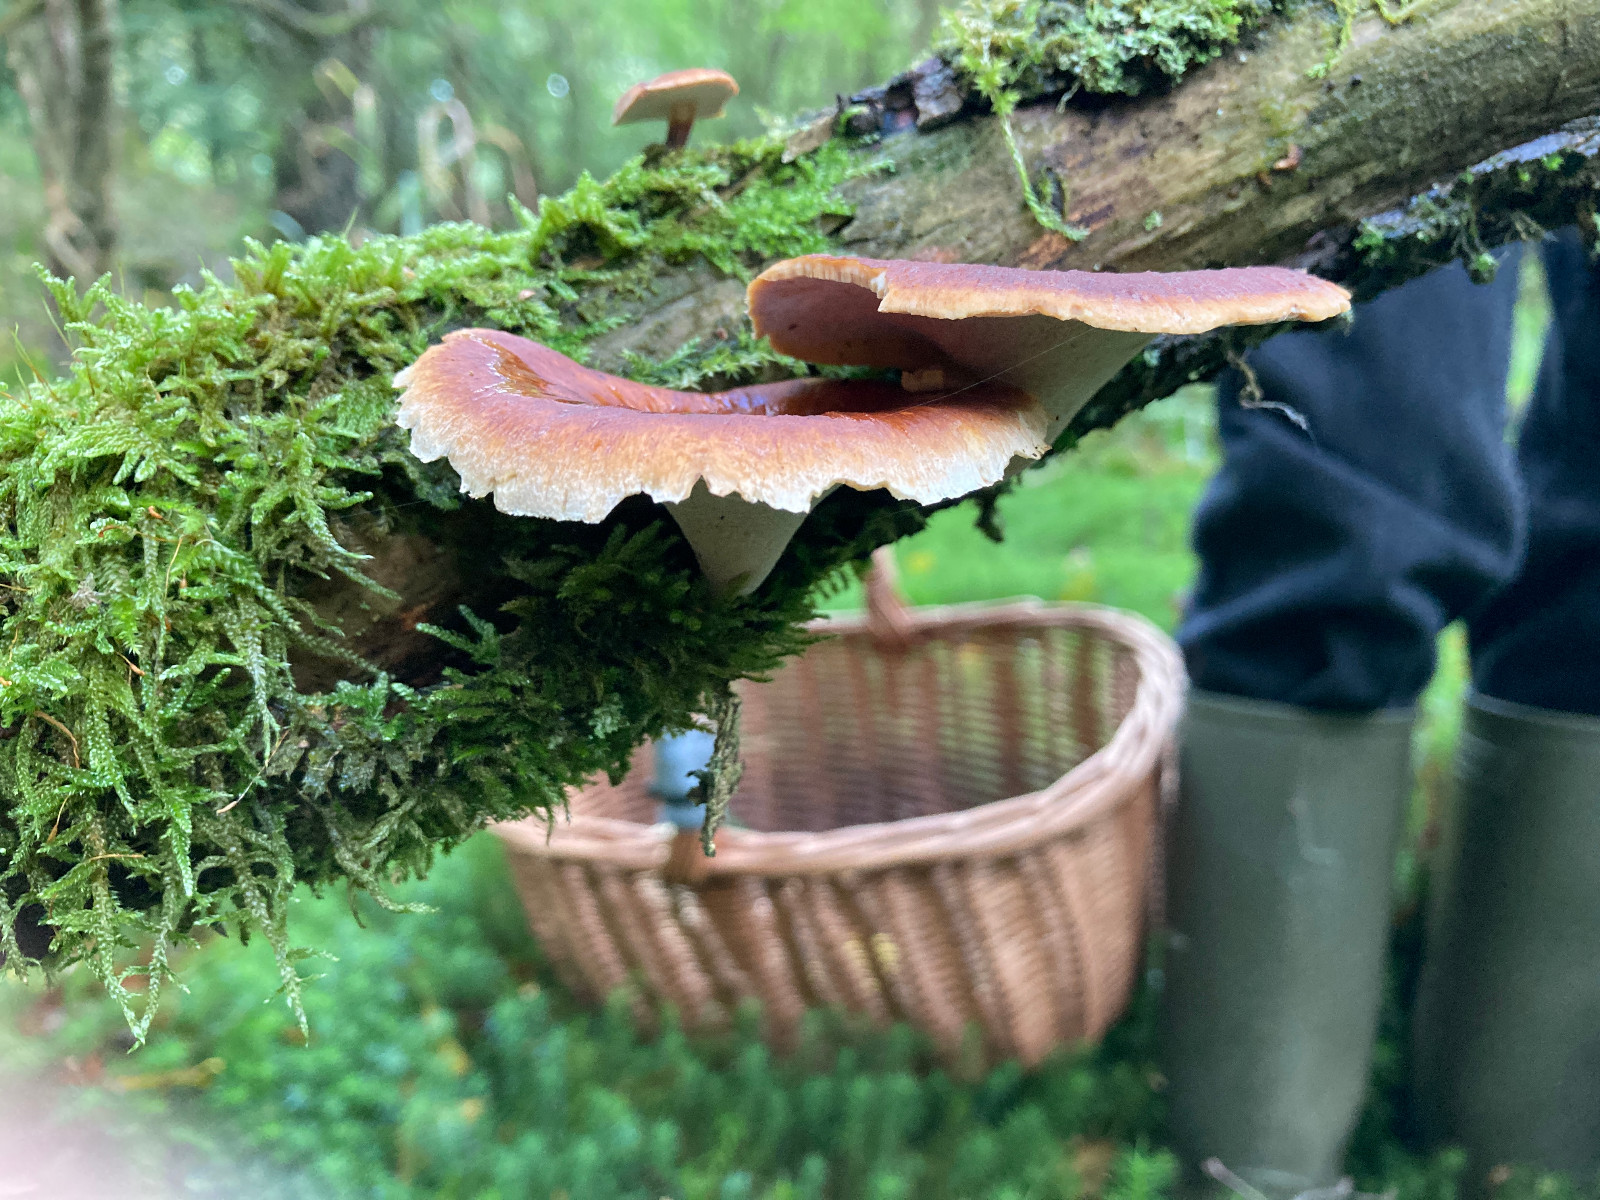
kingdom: Fungi
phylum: Basidiomycota
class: Agaricomycetes
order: Polyporales
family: Polyporaceae
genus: Picipes
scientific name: Picipes tubaeformis
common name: trompet-stilkporesvamp
